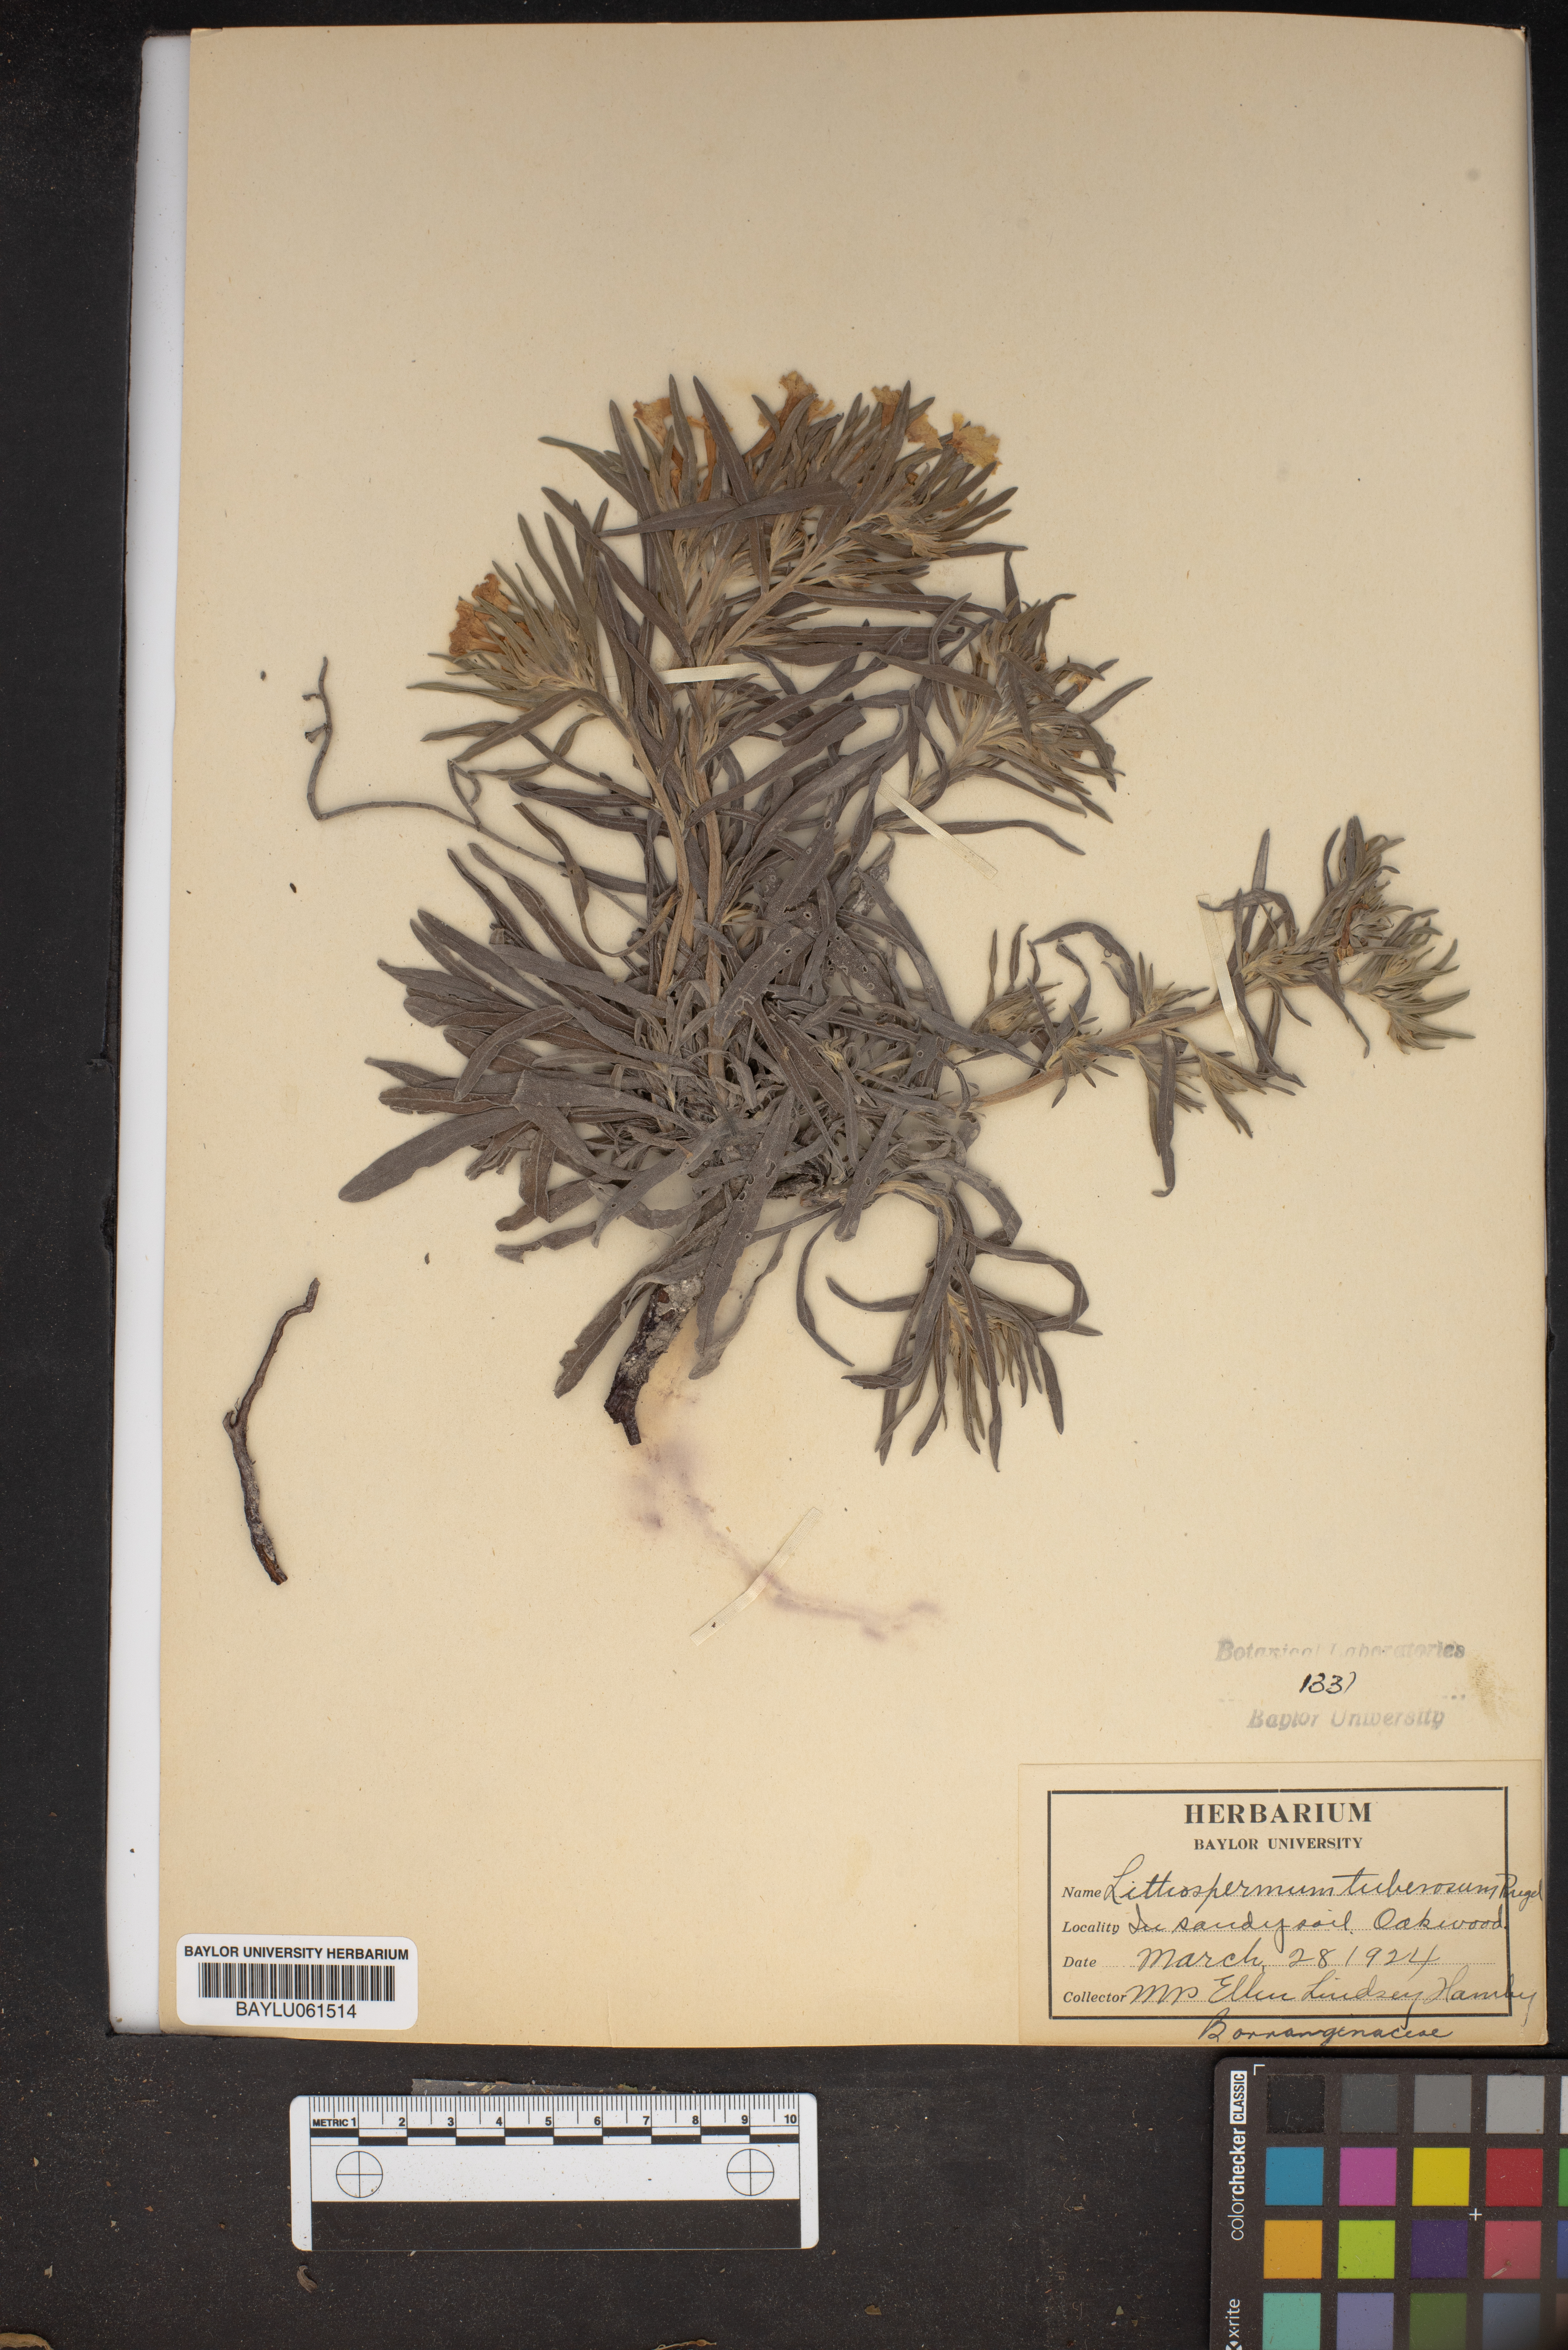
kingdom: Plantae
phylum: Tracheophyta
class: Magnoliopsida
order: Boraginales
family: Boraginaceae
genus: Lithospermum
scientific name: Lithospermum tuberosum
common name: Southern stoneseed
